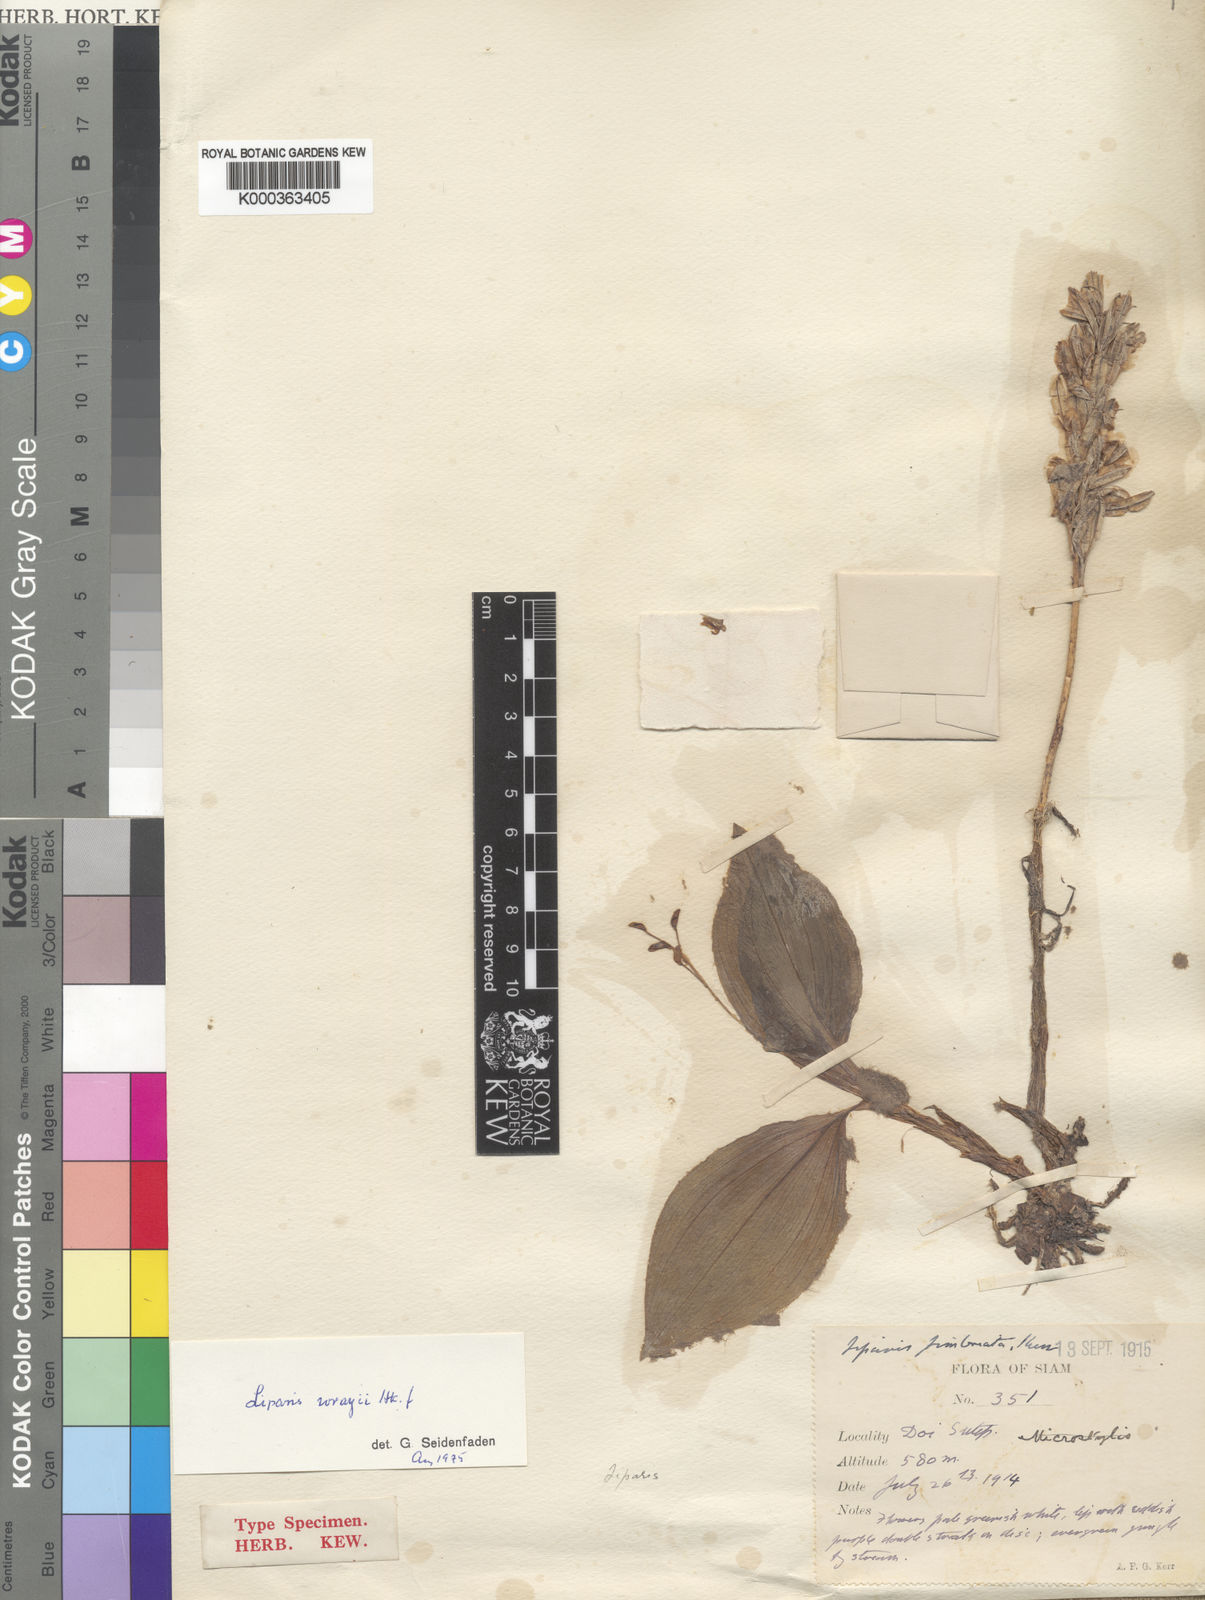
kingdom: Plantae
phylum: Tracheophyta
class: Liliopsida
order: Asparagales
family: Orchidaceae
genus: Liparis
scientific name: Liparis barbata
